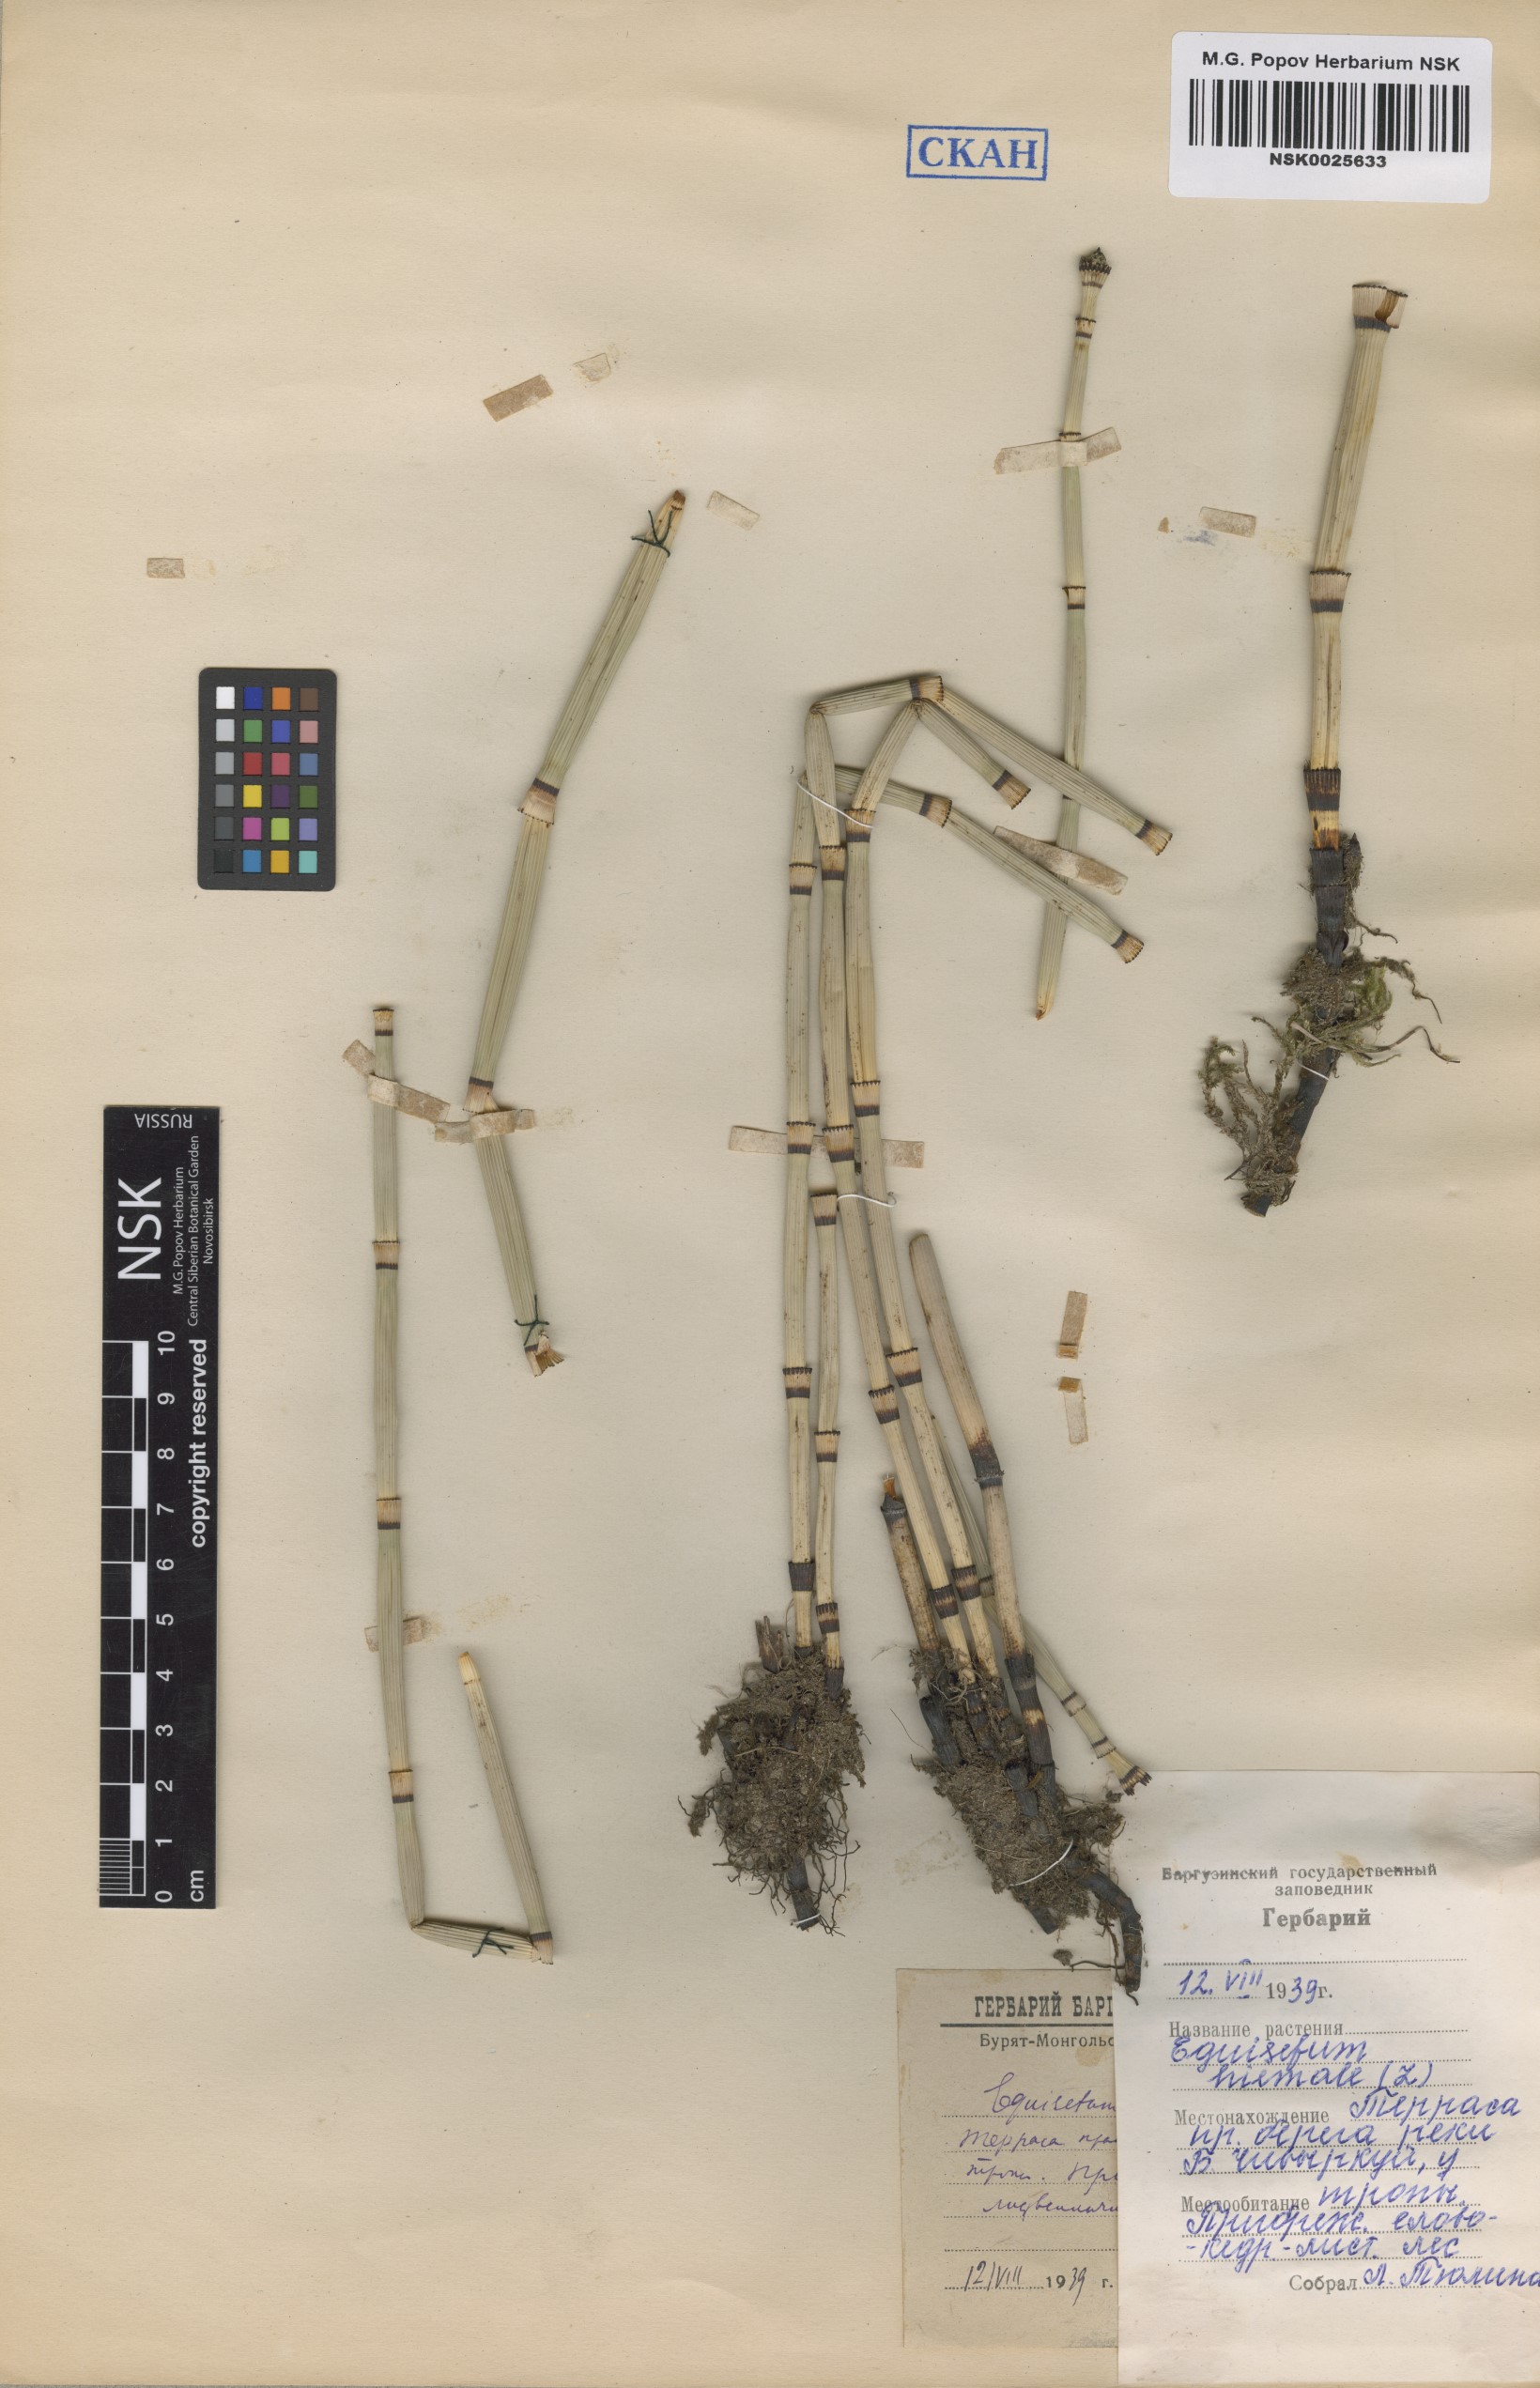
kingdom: Plantae
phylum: Tracheophyta
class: Polypodiopsida
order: Equisetales
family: Equisetaceae
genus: Equisetum
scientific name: Equisetum hyemale
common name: Rough horsetail
